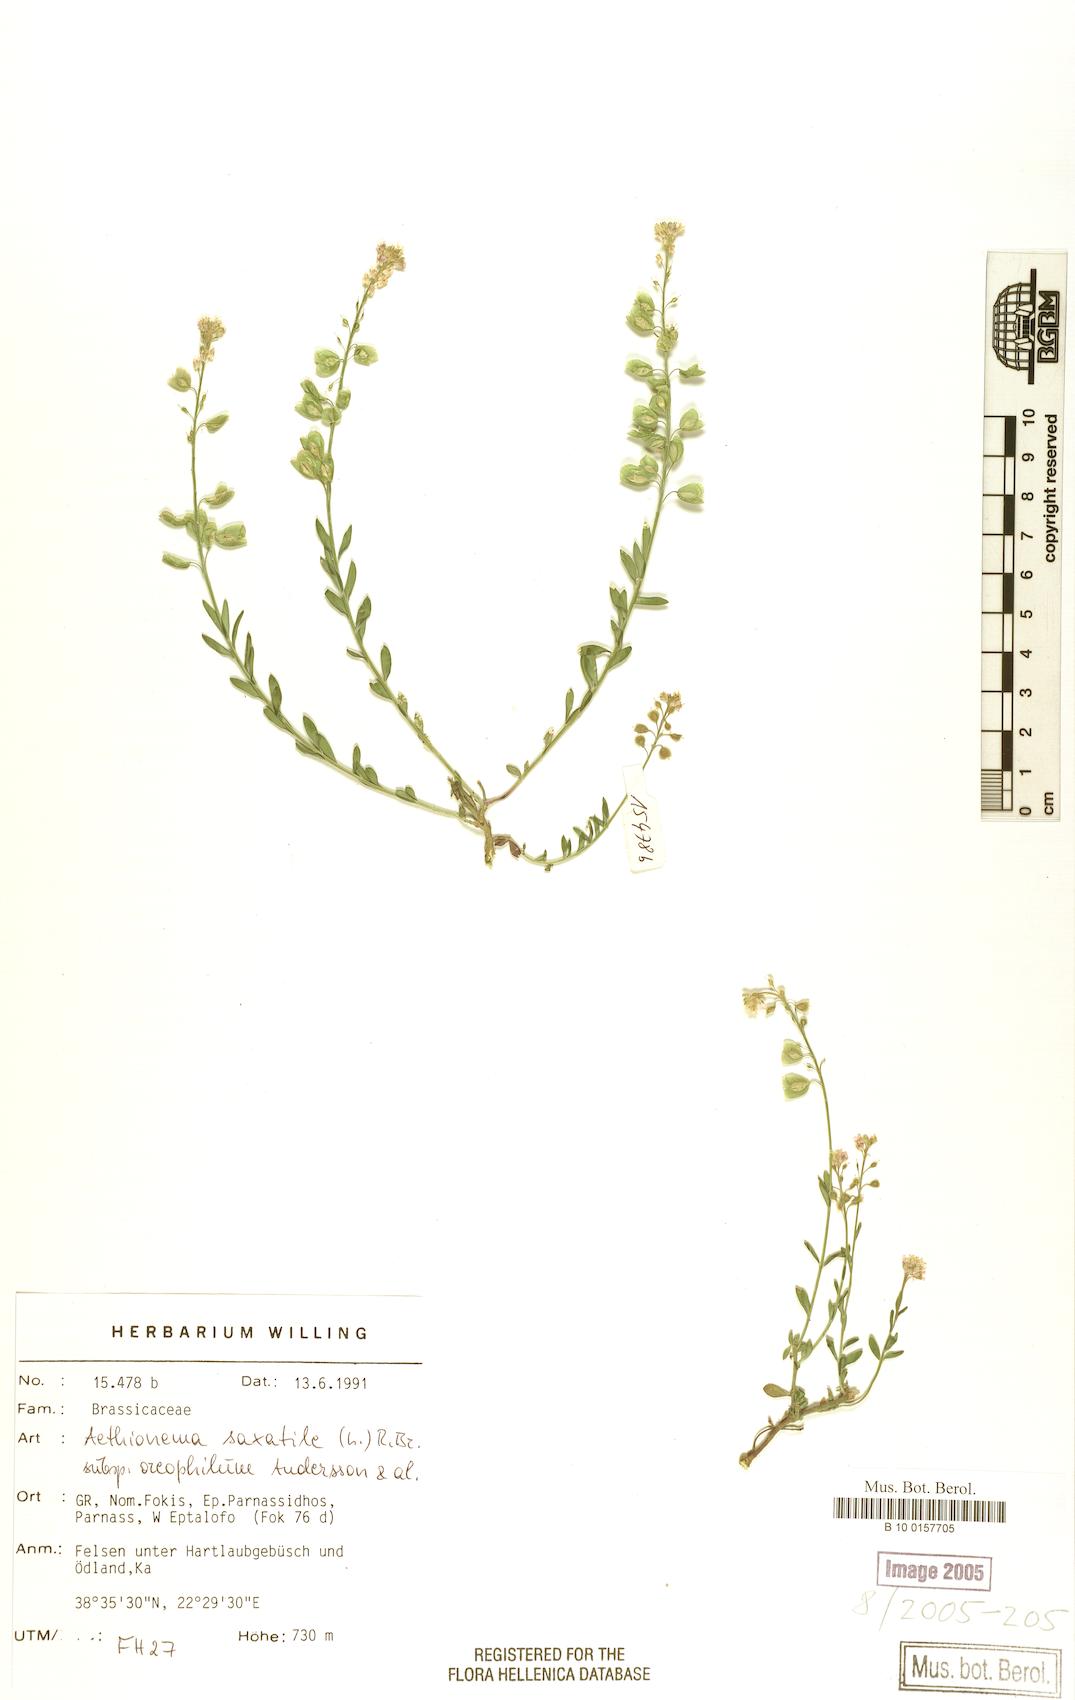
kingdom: Plantae
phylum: Tracheophyta
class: Magnoliopsida
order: Brassicales
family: Brassicaceae
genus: Aethionema
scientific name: Aethionema saxatile
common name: Burnt candytuft
